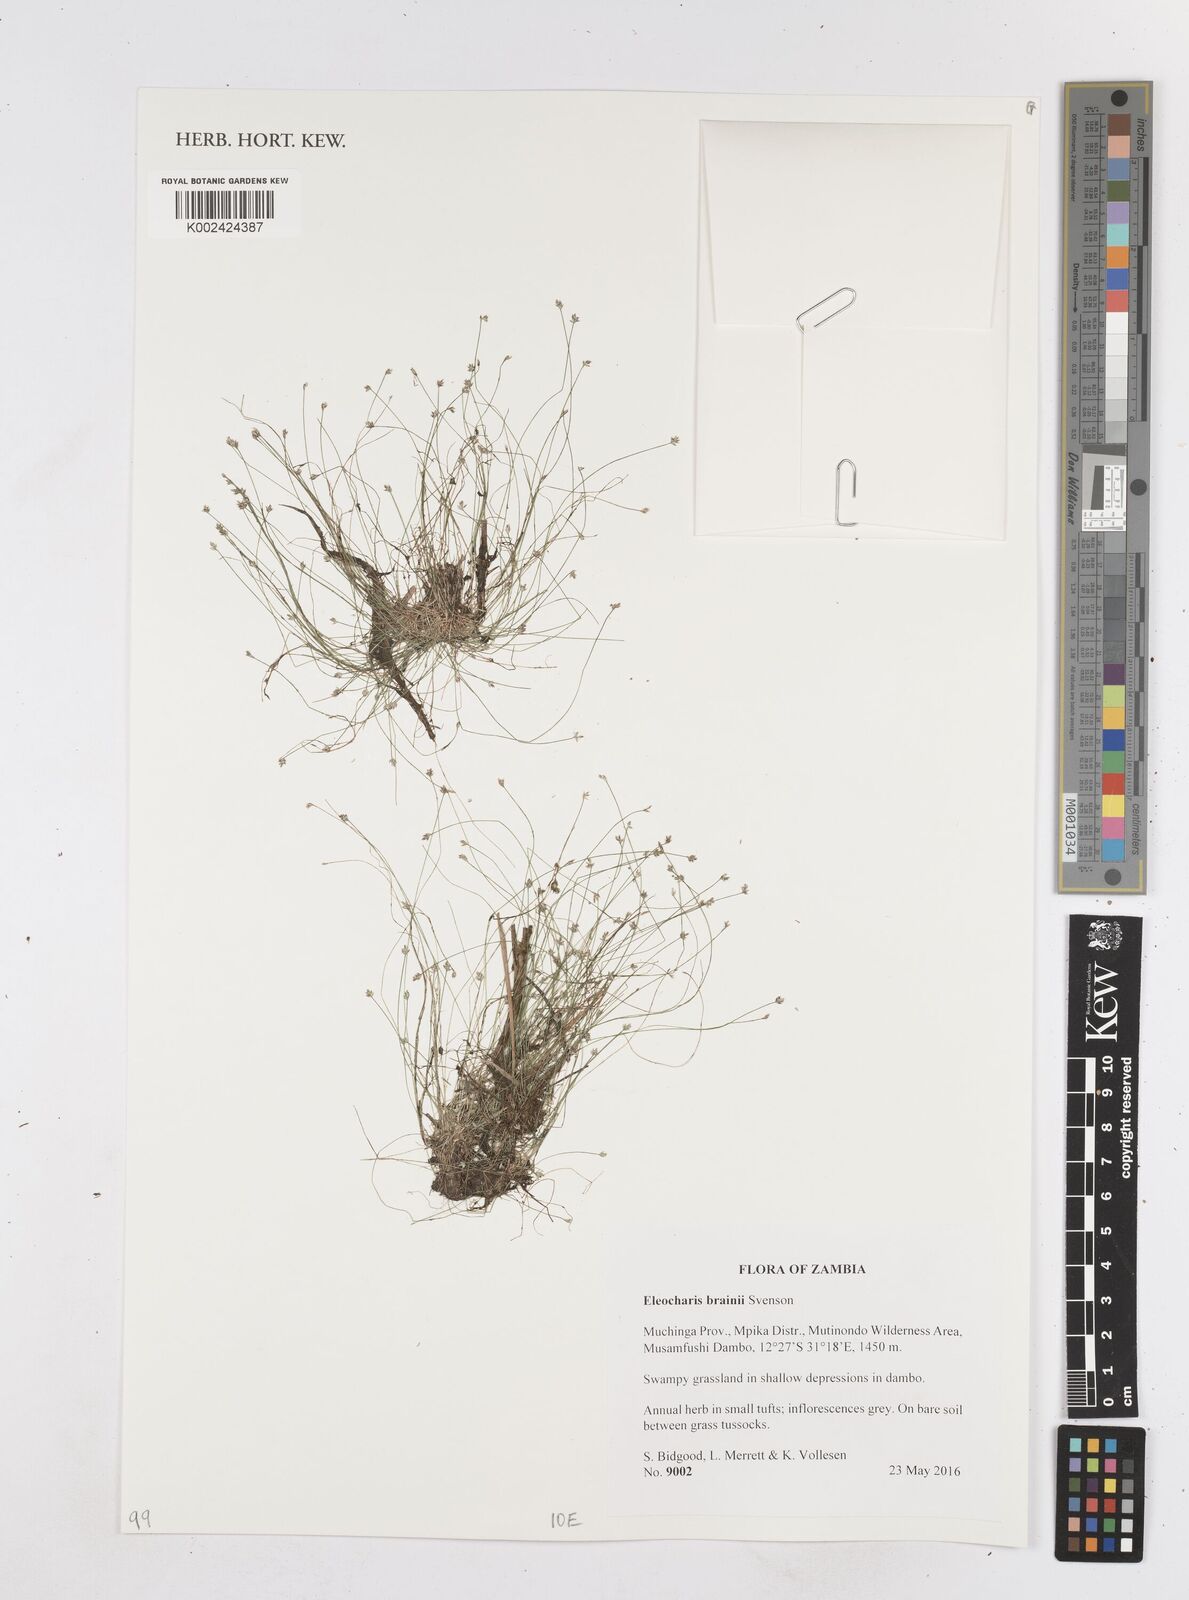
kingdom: Plantae
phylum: Tracheophyta
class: Liliopsida
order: Poales
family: Cyperaceae
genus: Eleocharis
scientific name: Eleocharis brainii
